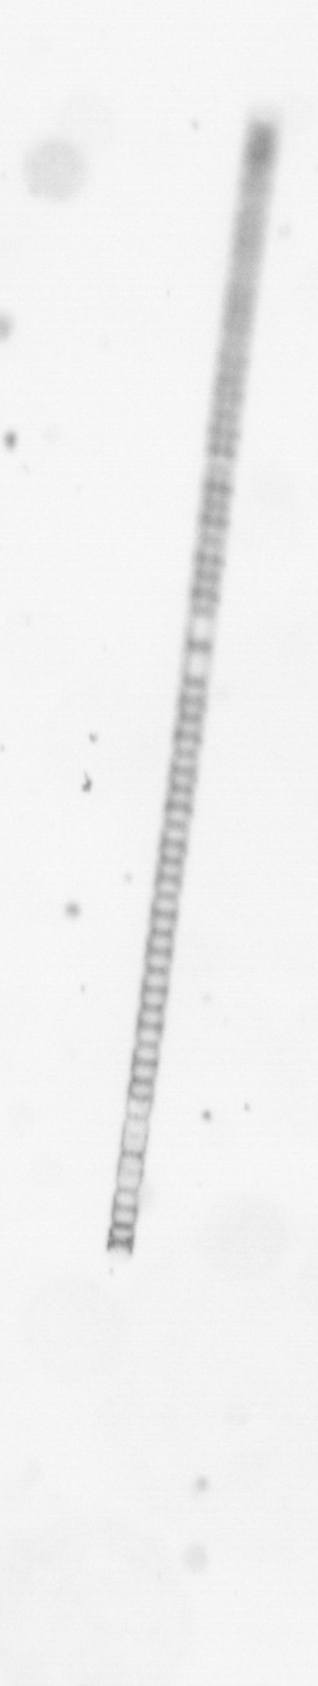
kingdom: Chromista
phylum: Ochrophyta
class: Bacillariophyceae
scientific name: Bacillariophyceae
